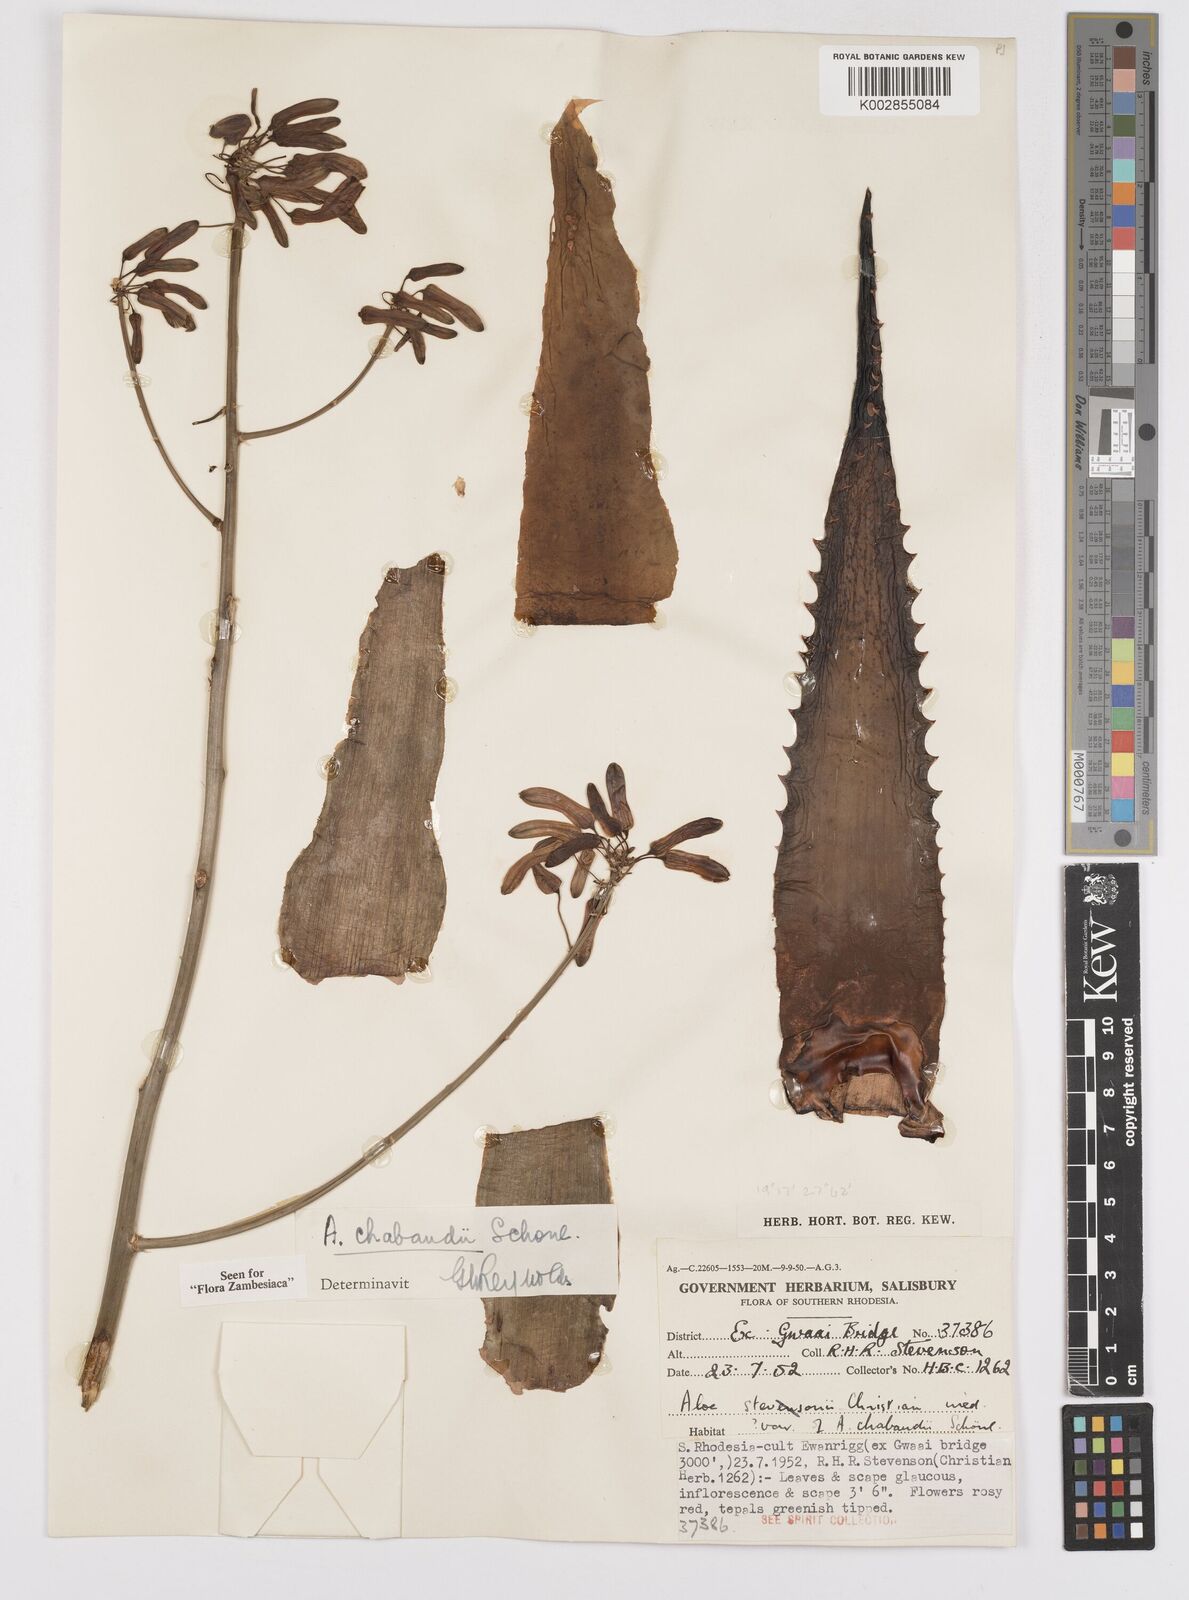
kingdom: Plantae
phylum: Tracheophyta
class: Liliopsida
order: Asparagales
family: Asphodelaceae
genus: Aloe
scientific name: Aloe chabaudii
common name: Chabaud's aloe
